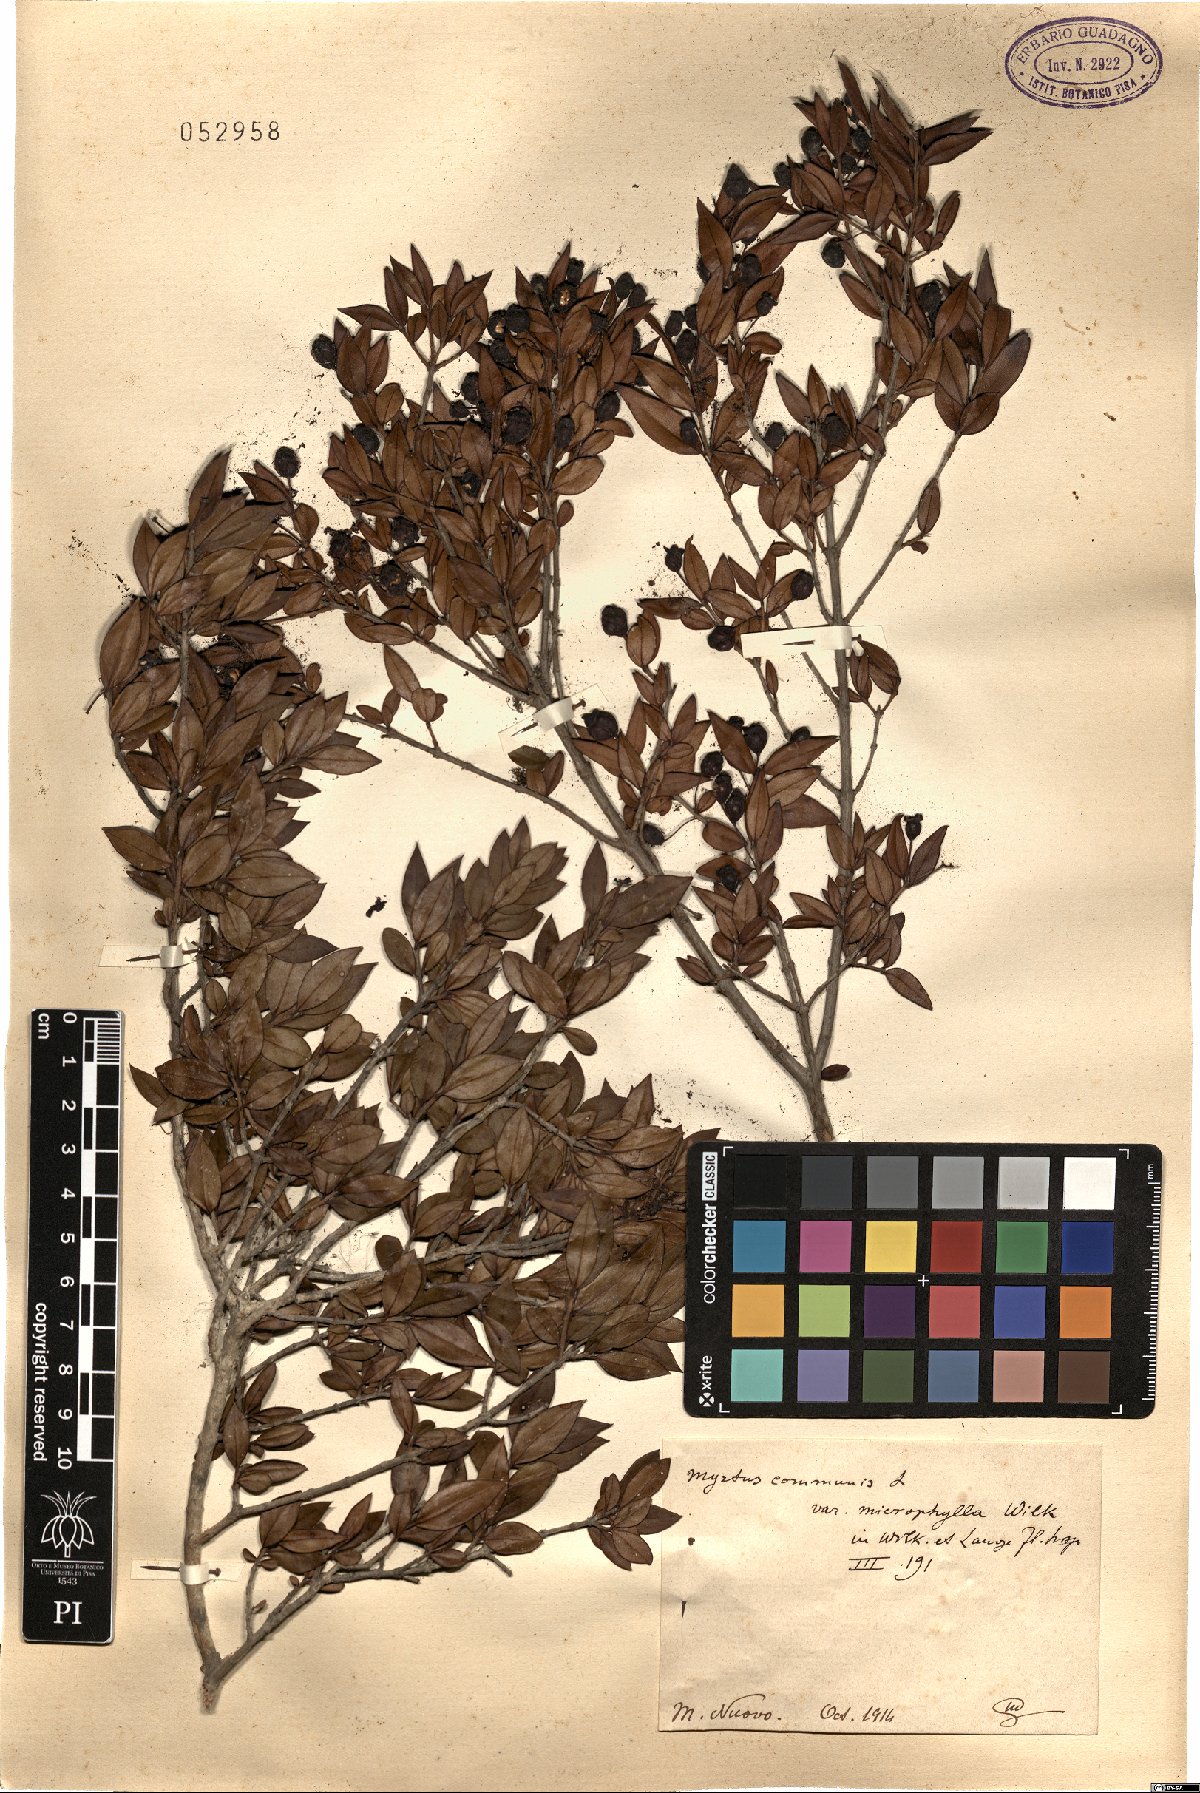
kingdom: Plantae
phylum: Tracheophyta
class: Magnoliopsida
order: Myrtales
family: Myrtaceae
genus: Myrtus
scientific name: Myrtus communis
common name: Myrtle
